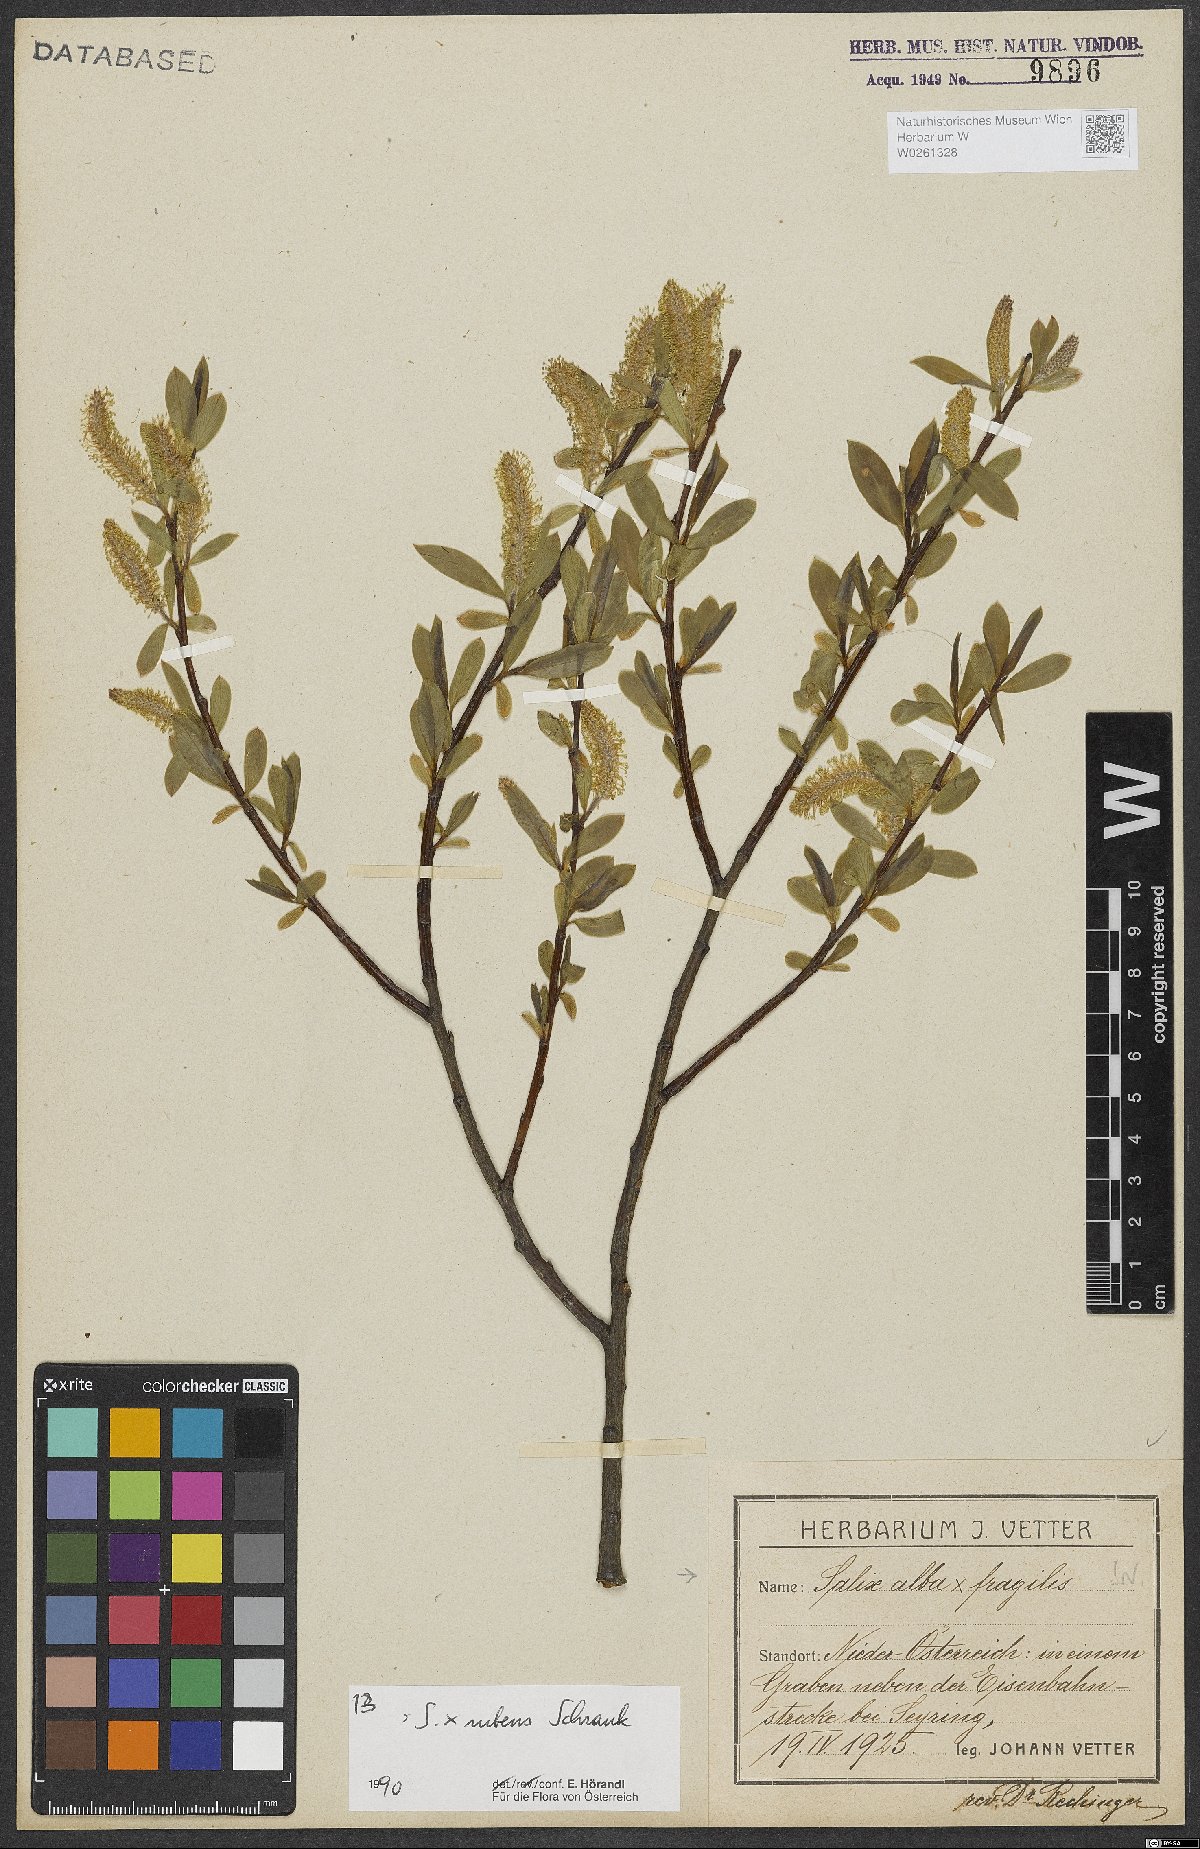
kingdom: Plantae
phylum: Tracheophyta
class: Magnoliopsida
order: Malpighiales
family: Salicaceae
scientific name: Salicaceae
